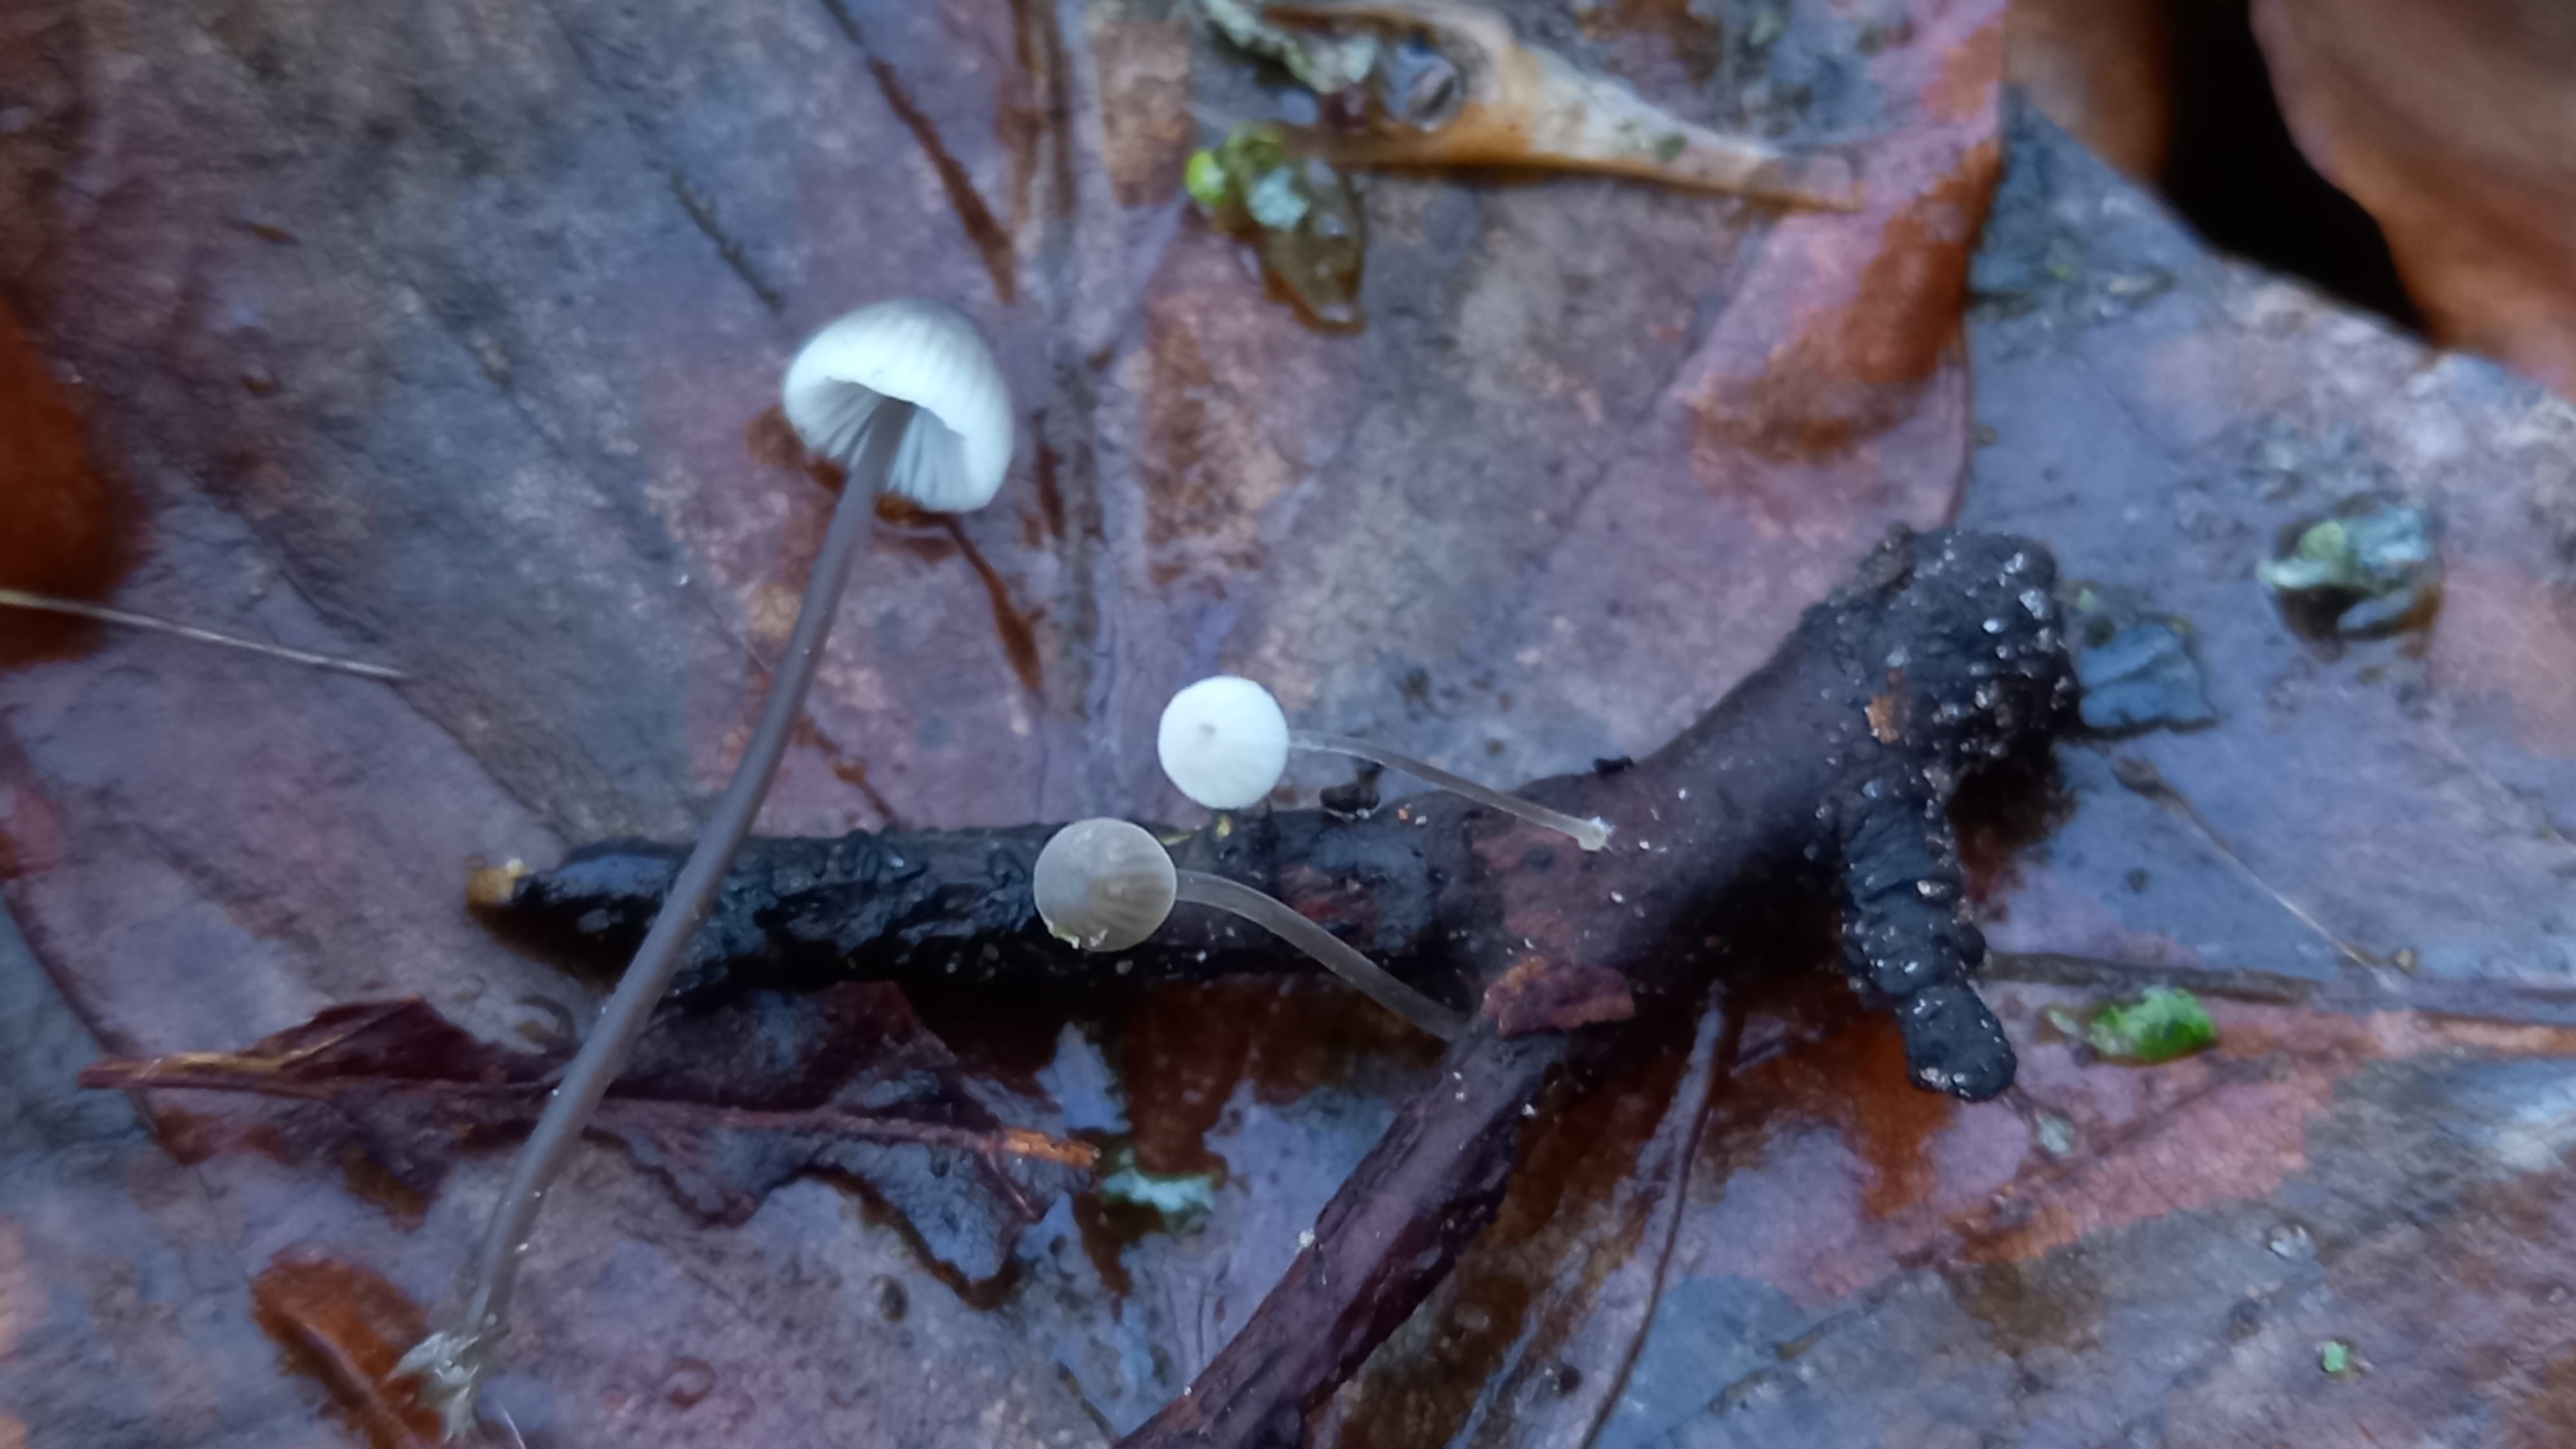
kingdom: Fungi
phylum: Basidiomycota
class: Agaricomycetes
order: Agaricales
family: Mycenaceae
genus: Mycena
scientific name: Mycena arcangeliana
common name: oliven-huesvamp
